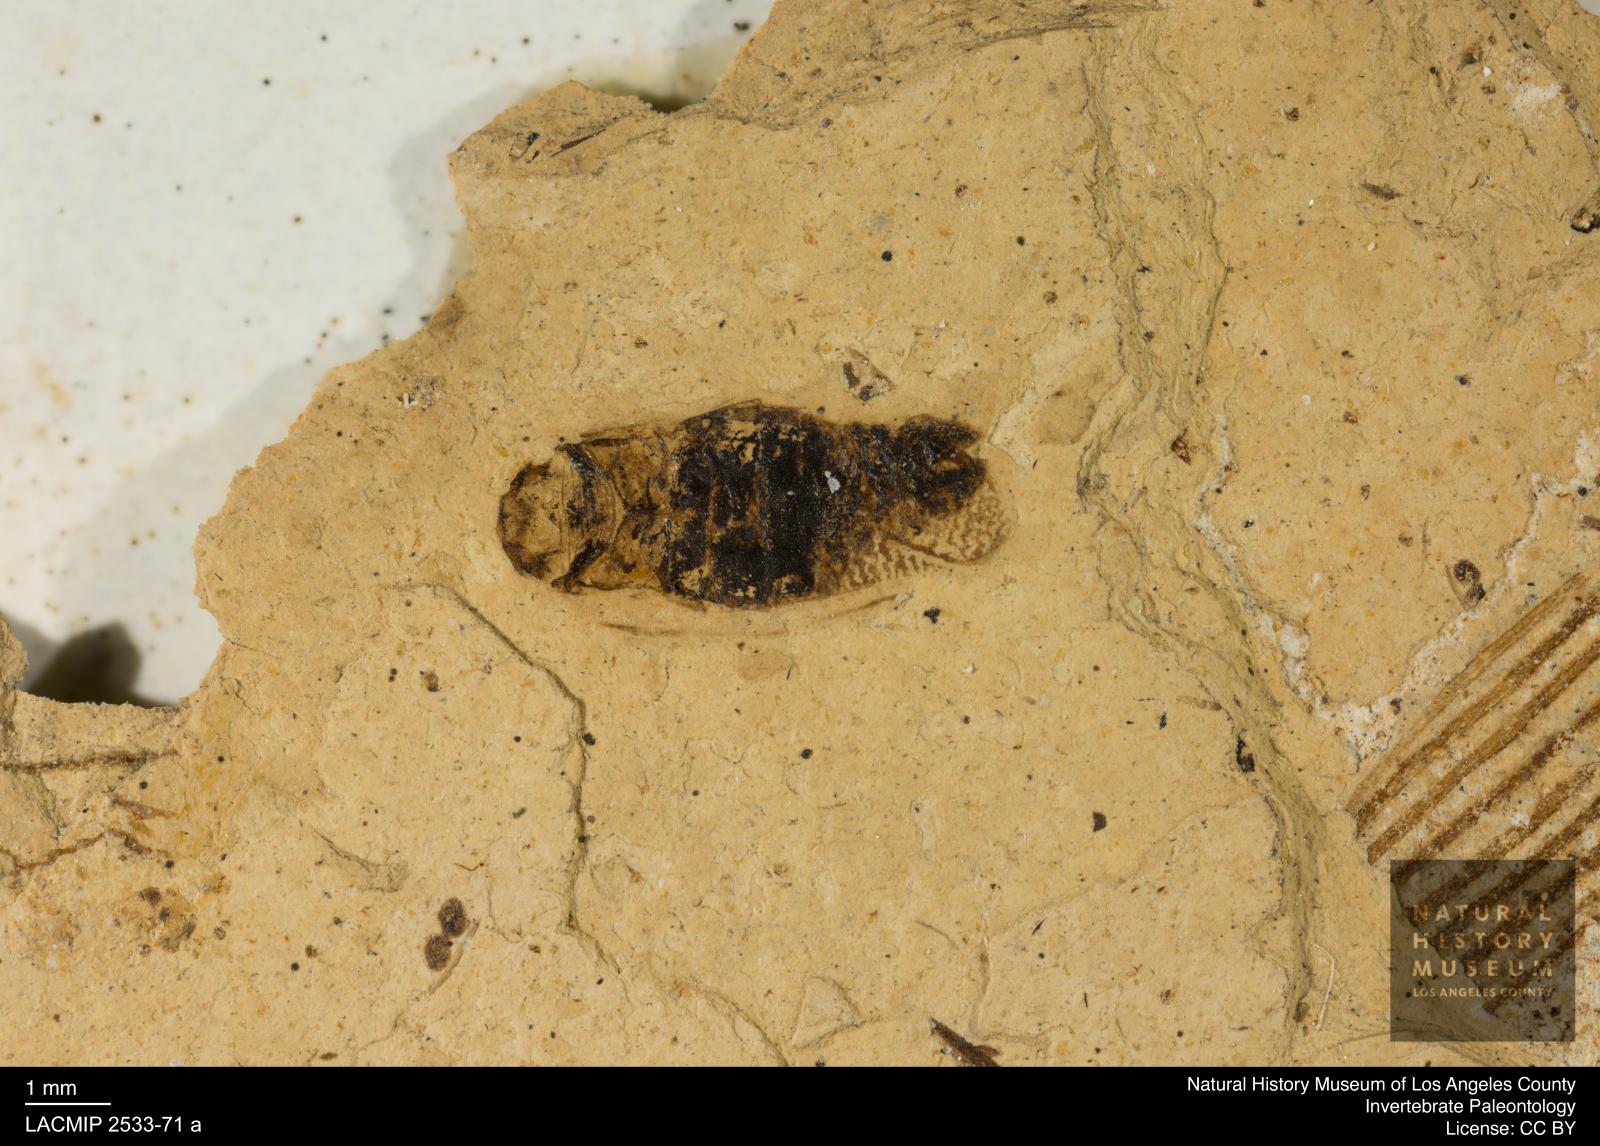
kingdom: Animalia
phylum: Arthropoda
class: Insecta
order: Hemiptera
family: Corixidae
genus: Corixa
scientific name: Corixa
